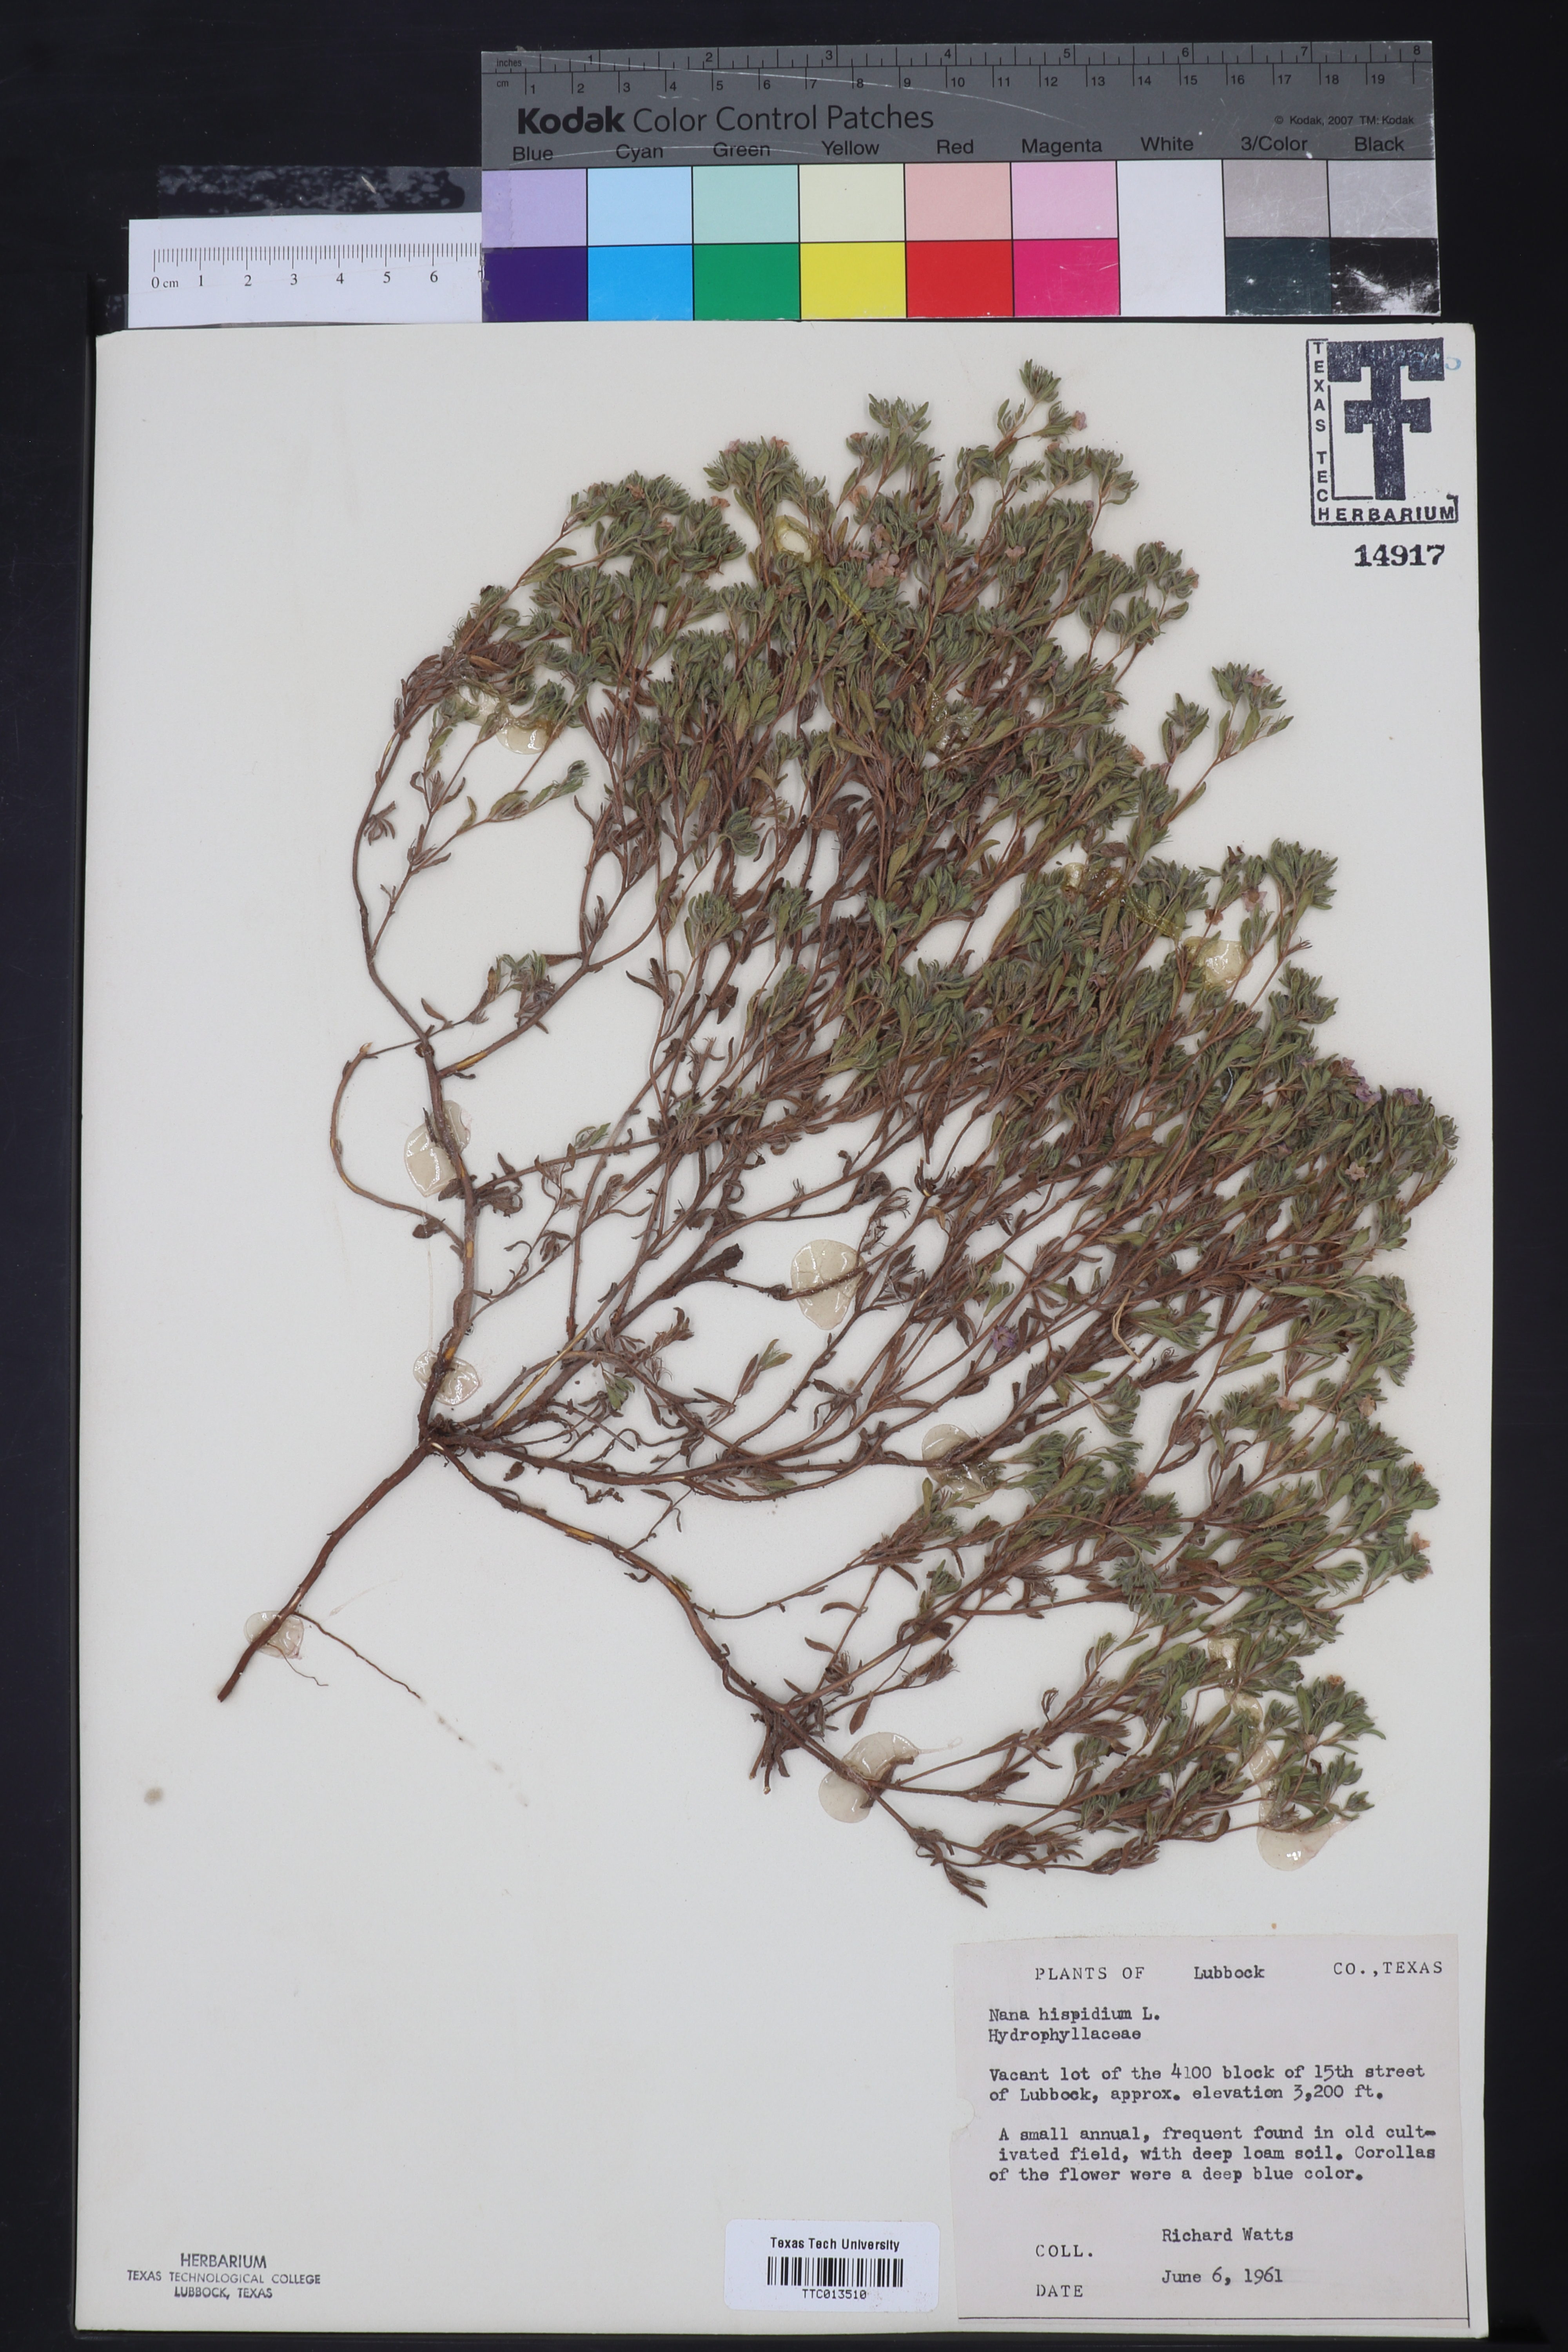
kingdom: Plantae
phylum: Tracheophyta
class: Magnoliopsida
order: Boraginales
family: Namaceae
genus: Nama
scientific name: Nama hispida
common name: Bristly nama
